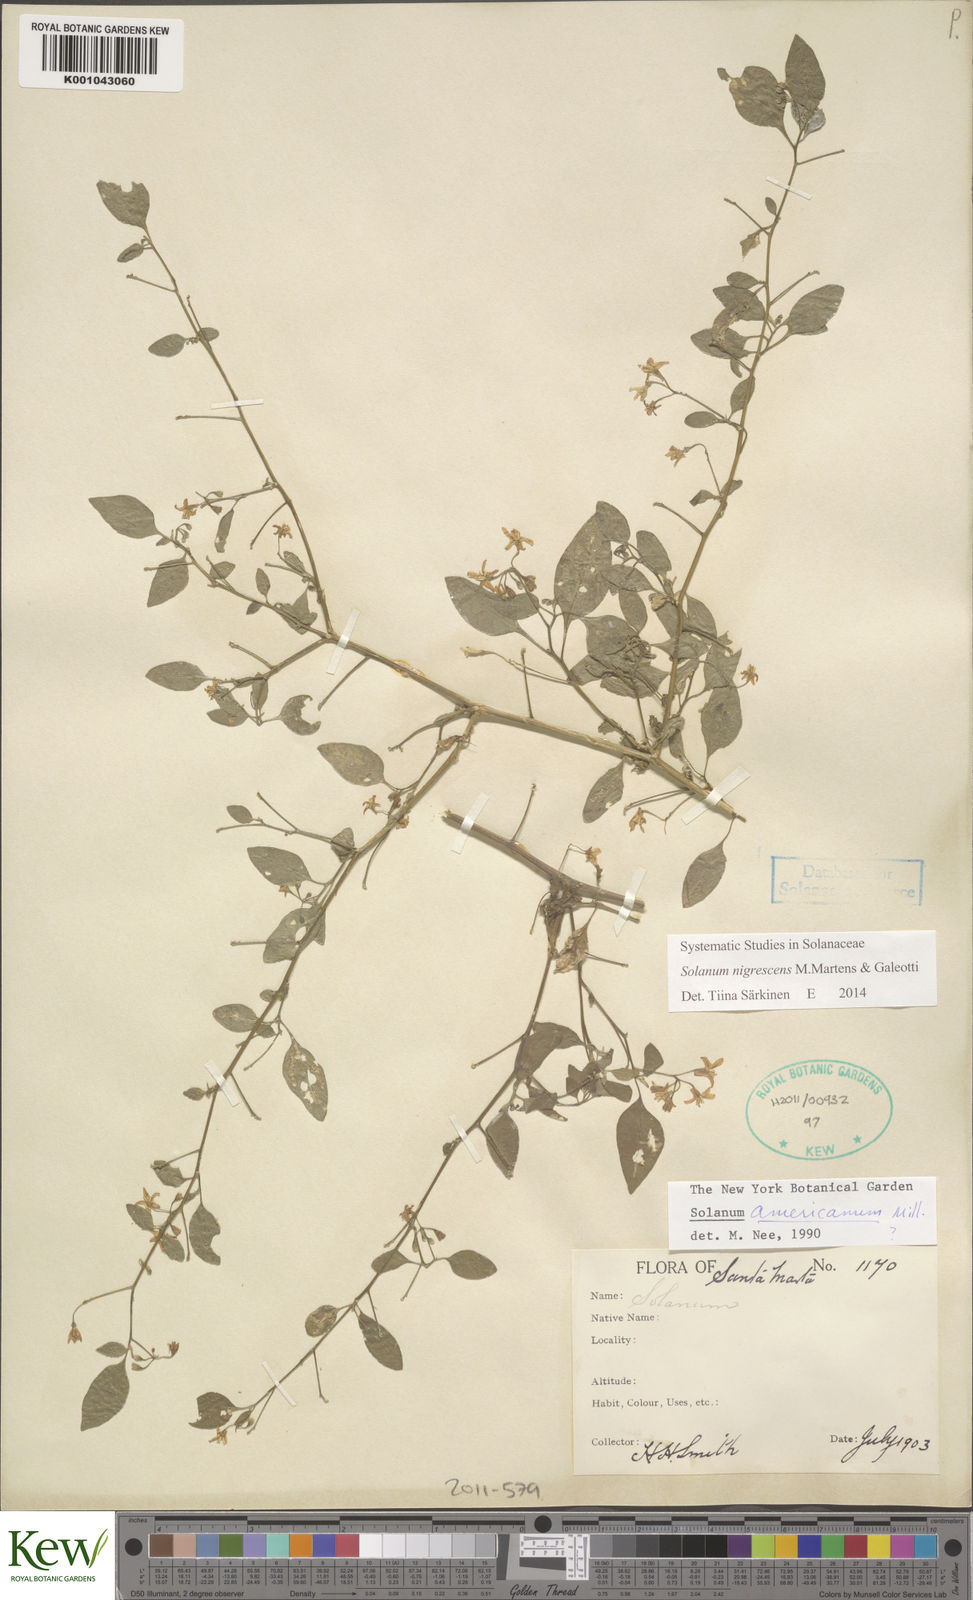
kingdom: Plantae
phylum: Tracheophyta
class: Magnoliopsida
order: Solanales
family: Solanaceae
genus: Solanum
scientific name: Solanum nigrescens
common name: Divine nightshade
